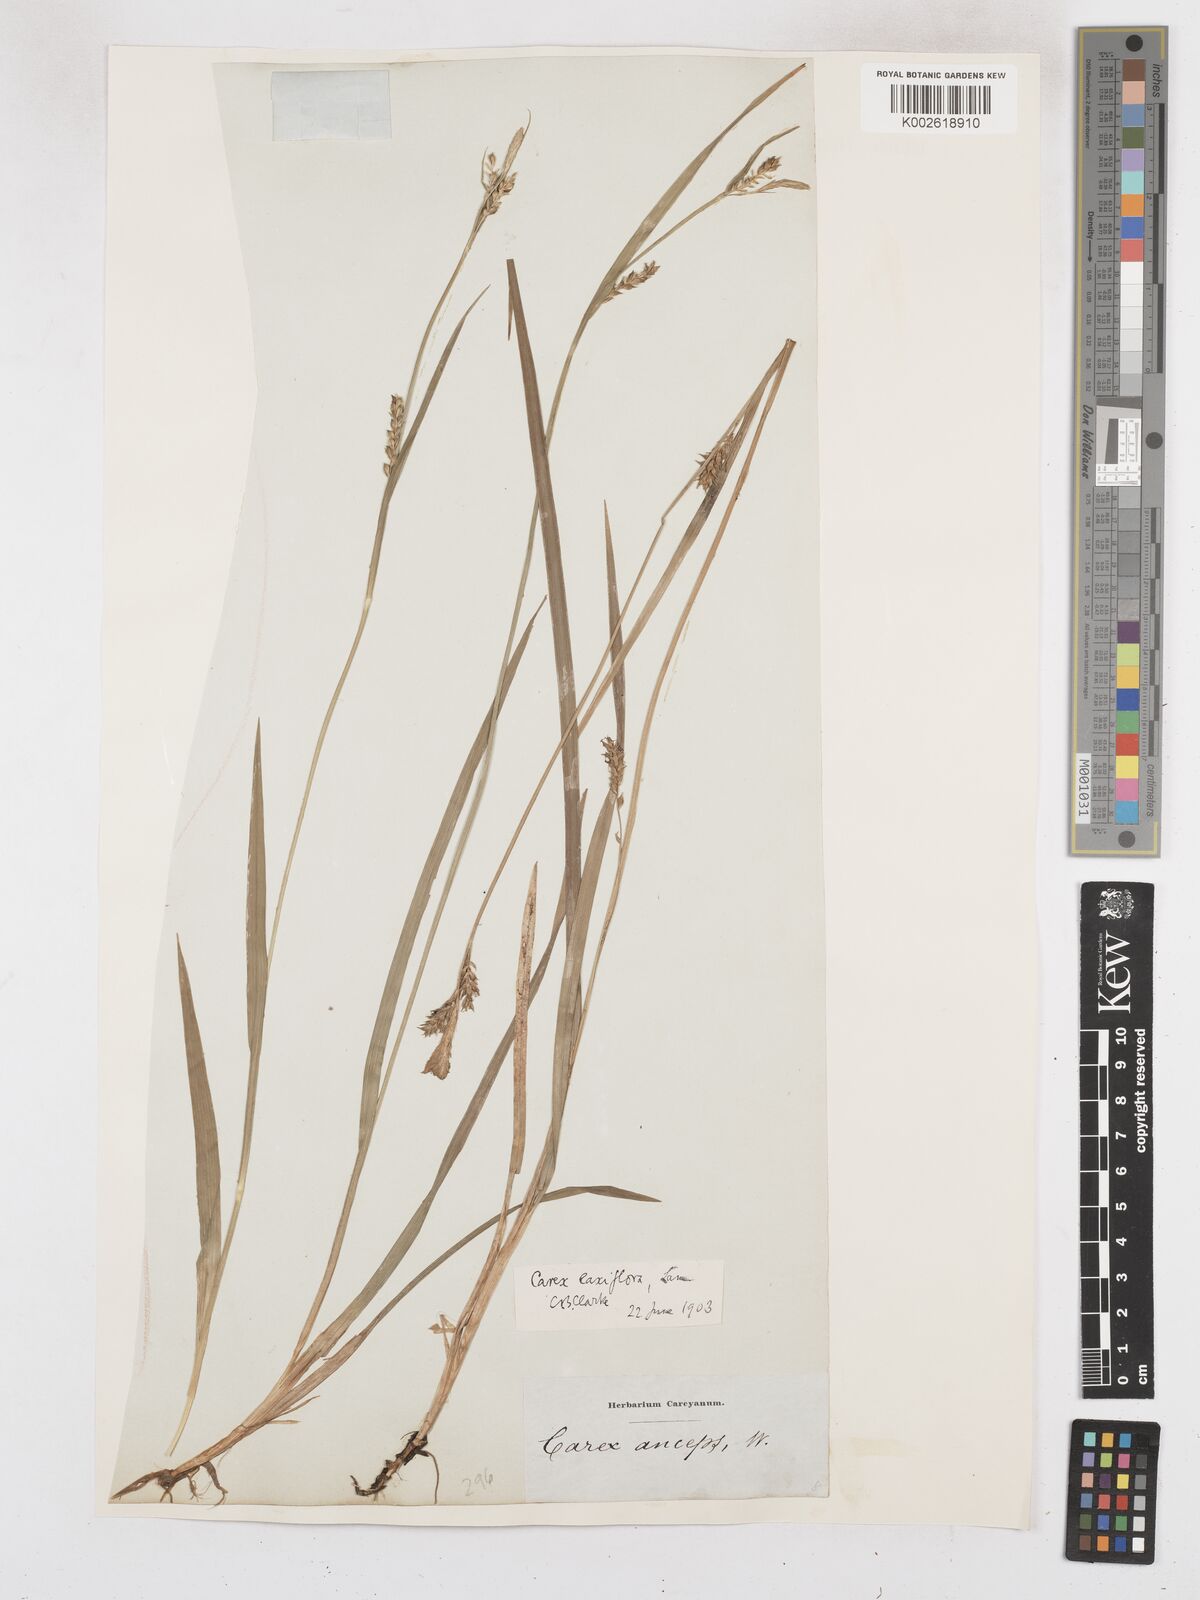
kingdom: Plantae
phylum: Tracheophyta
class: Liliopsida
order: Poales
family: Cyperaceae
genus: Carex
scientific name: Carex laxiflora
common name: Beech wood sedge
